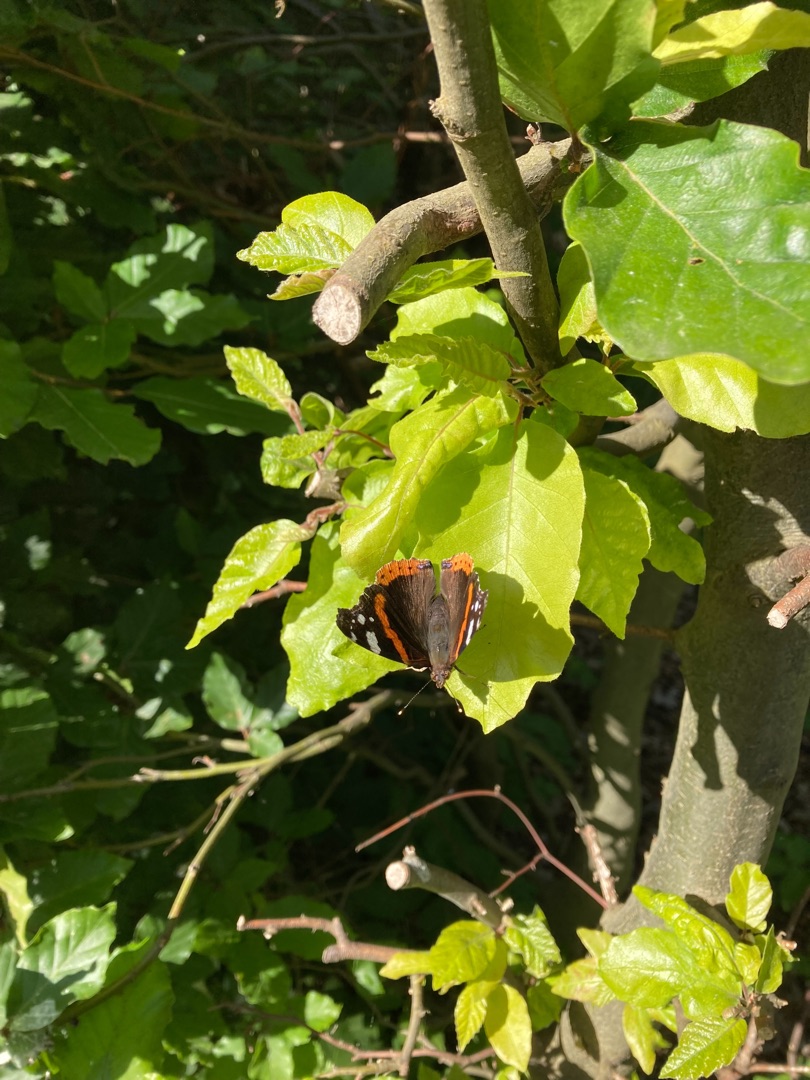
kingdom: Animalia
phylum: Arthropoda
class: Insecta
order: Lepidoptera
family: Nymphalidae
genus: Vanessa
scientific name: Vanessa atalanta
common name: Admiral
